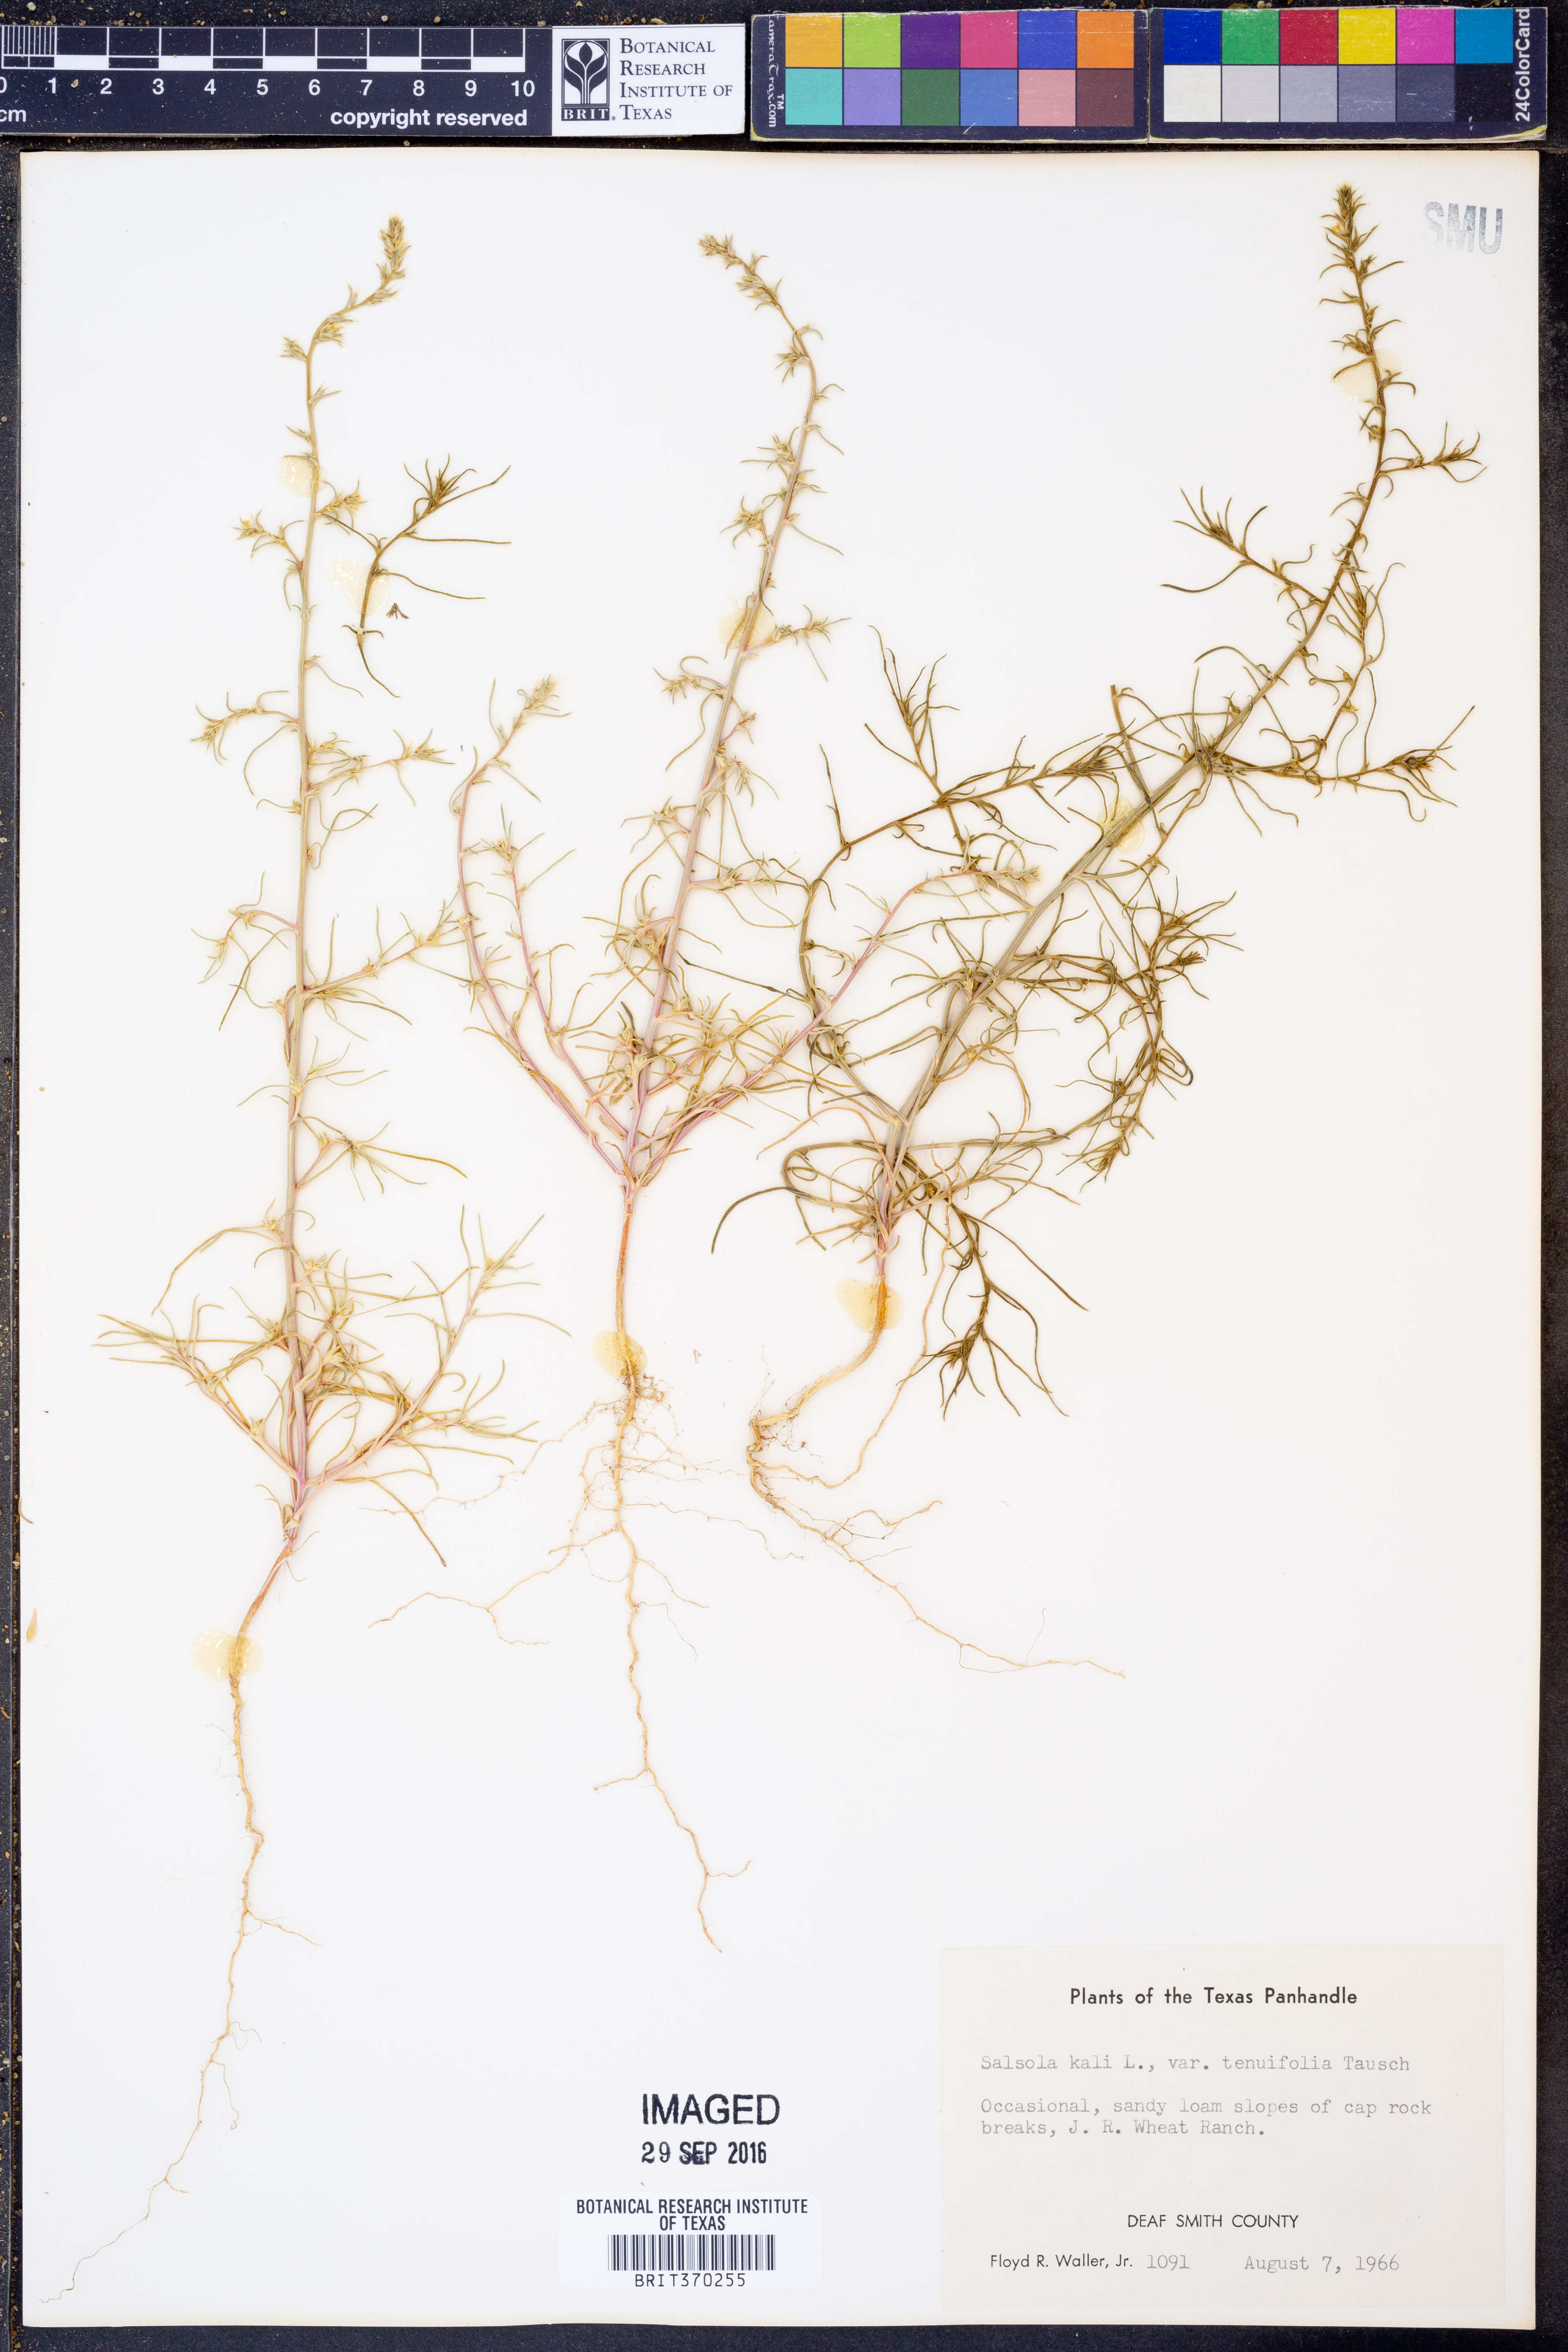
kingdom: Plantae
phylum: Tracheophyta
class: Magnoliopsida
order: Caryophyllales
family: Amaranthaceae
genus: Salsola
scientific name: Salsola tragus
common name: Prickly russian thistle
